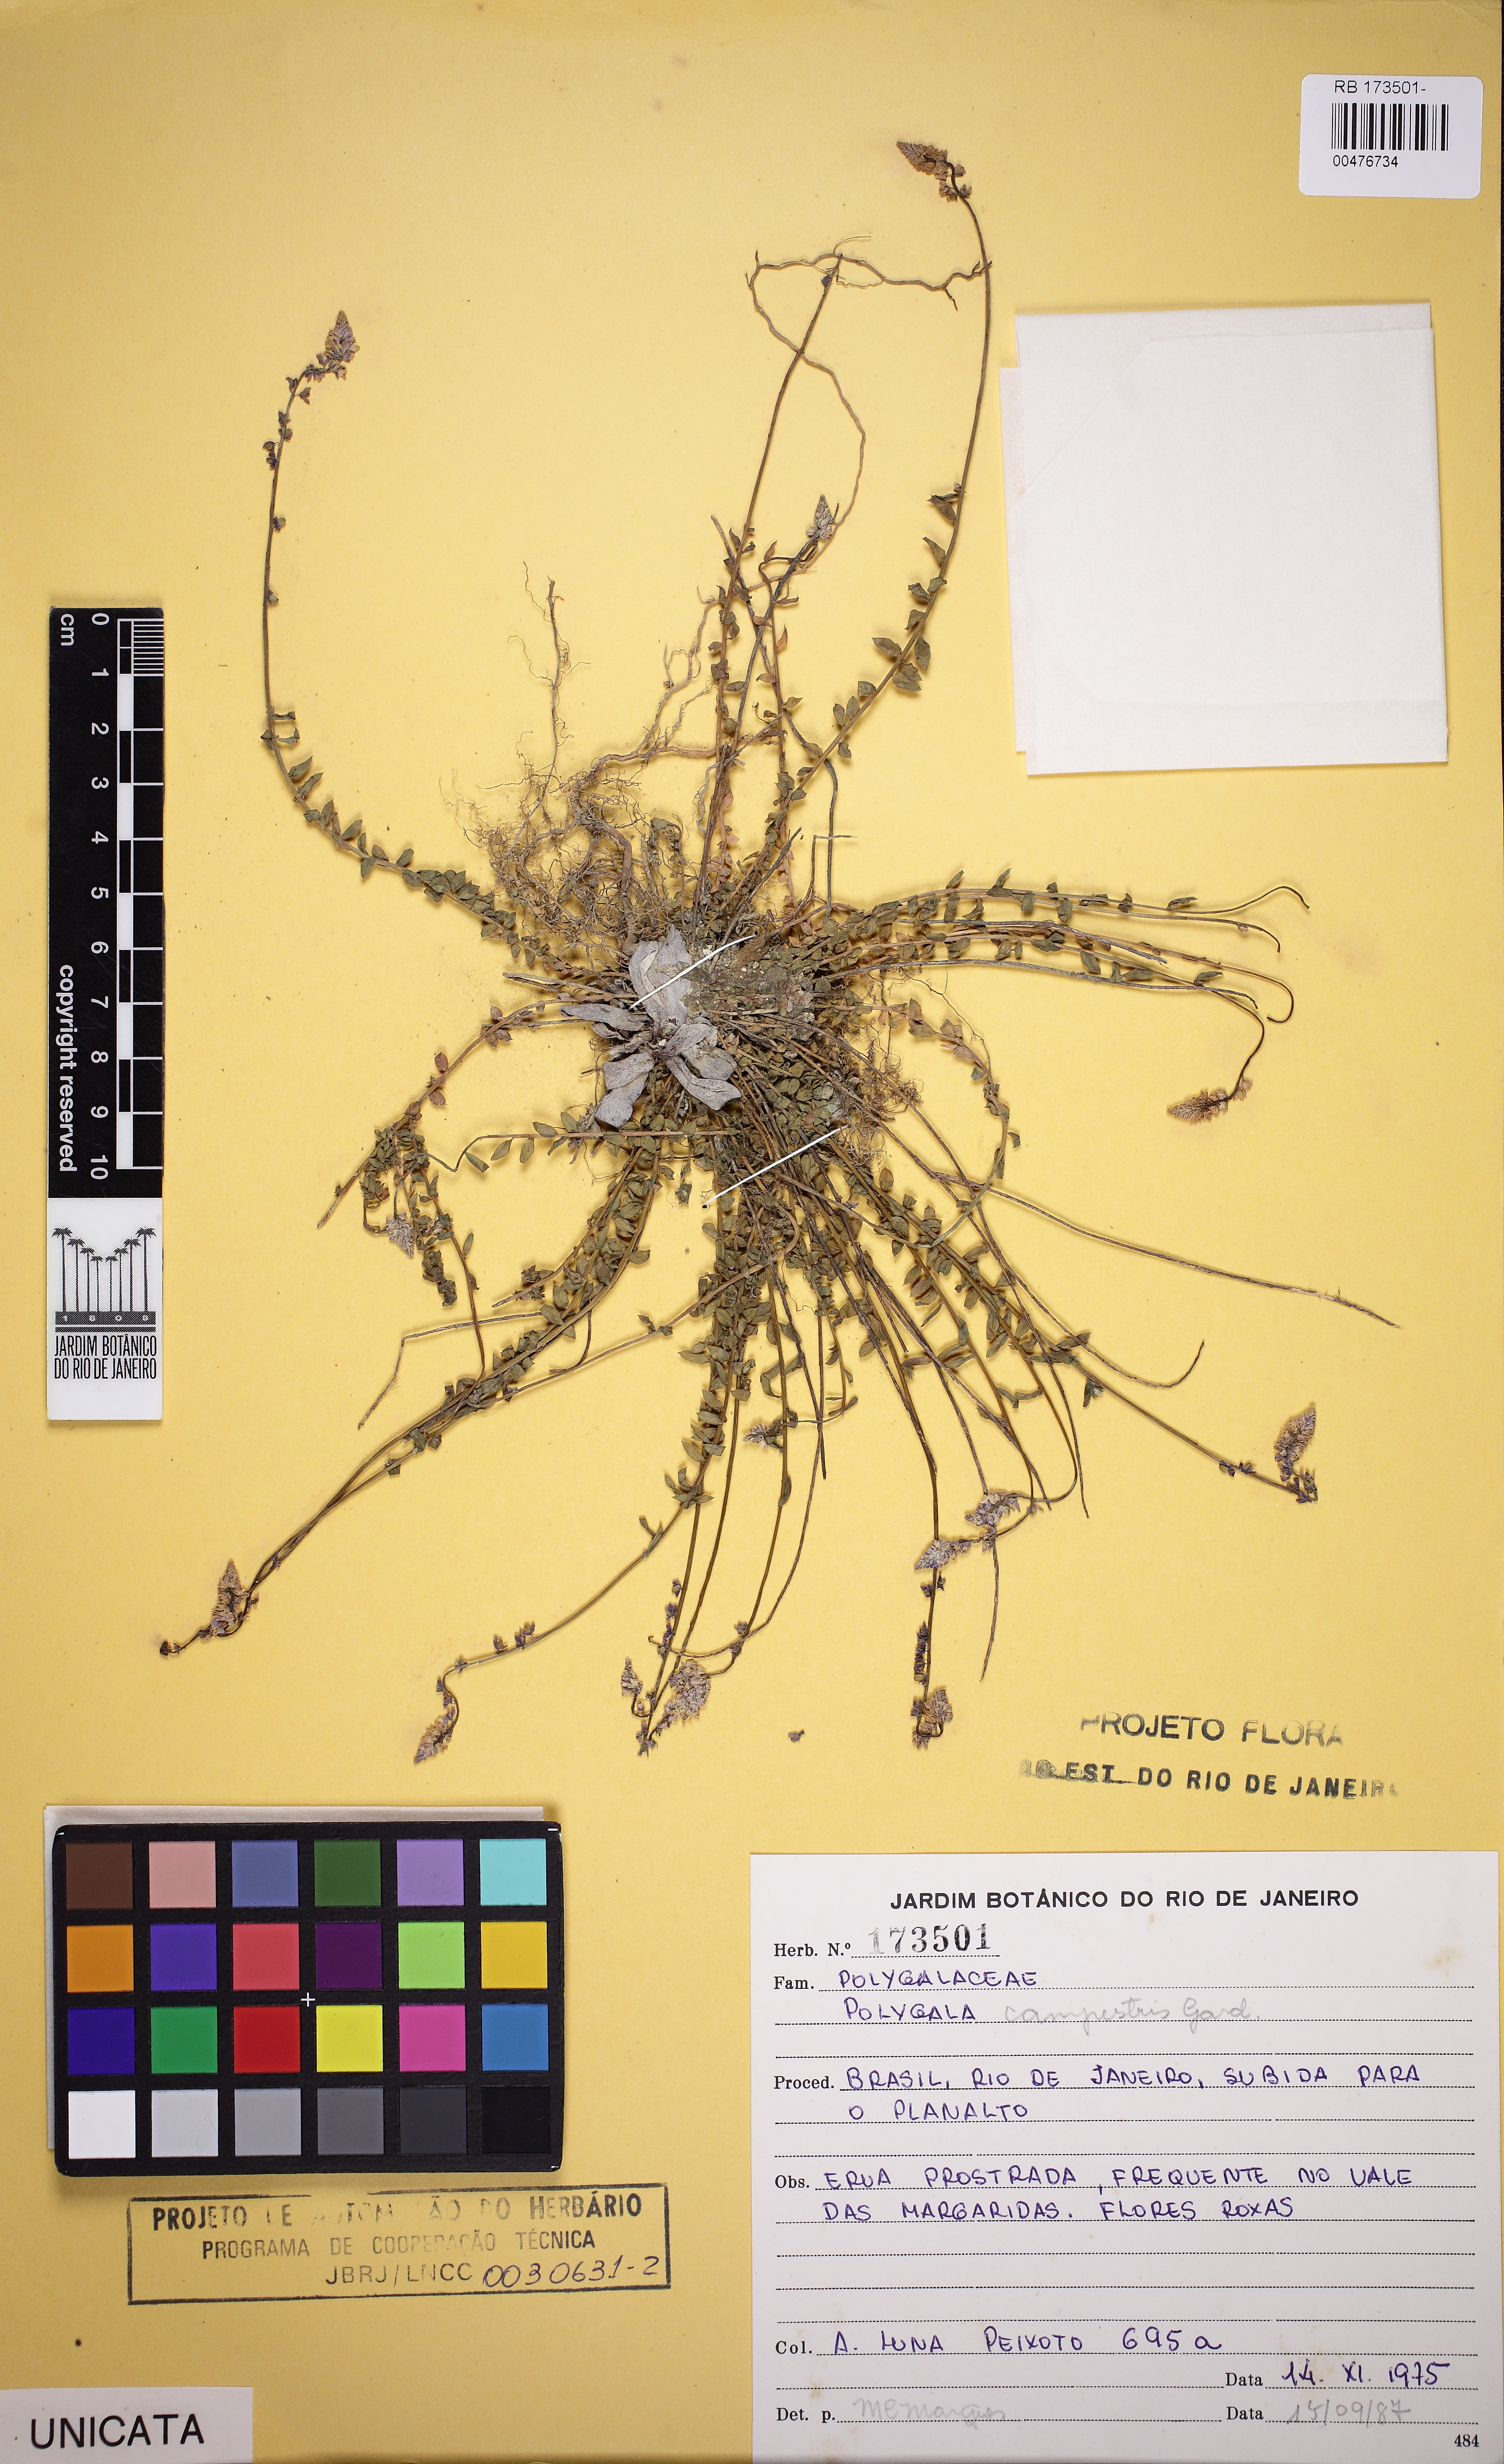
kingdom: Plantae
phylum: Tracheophyta
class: Magnoliopsida
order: Fabales
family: Polygalaceae
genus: Polygala
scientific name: Polygala campestris
